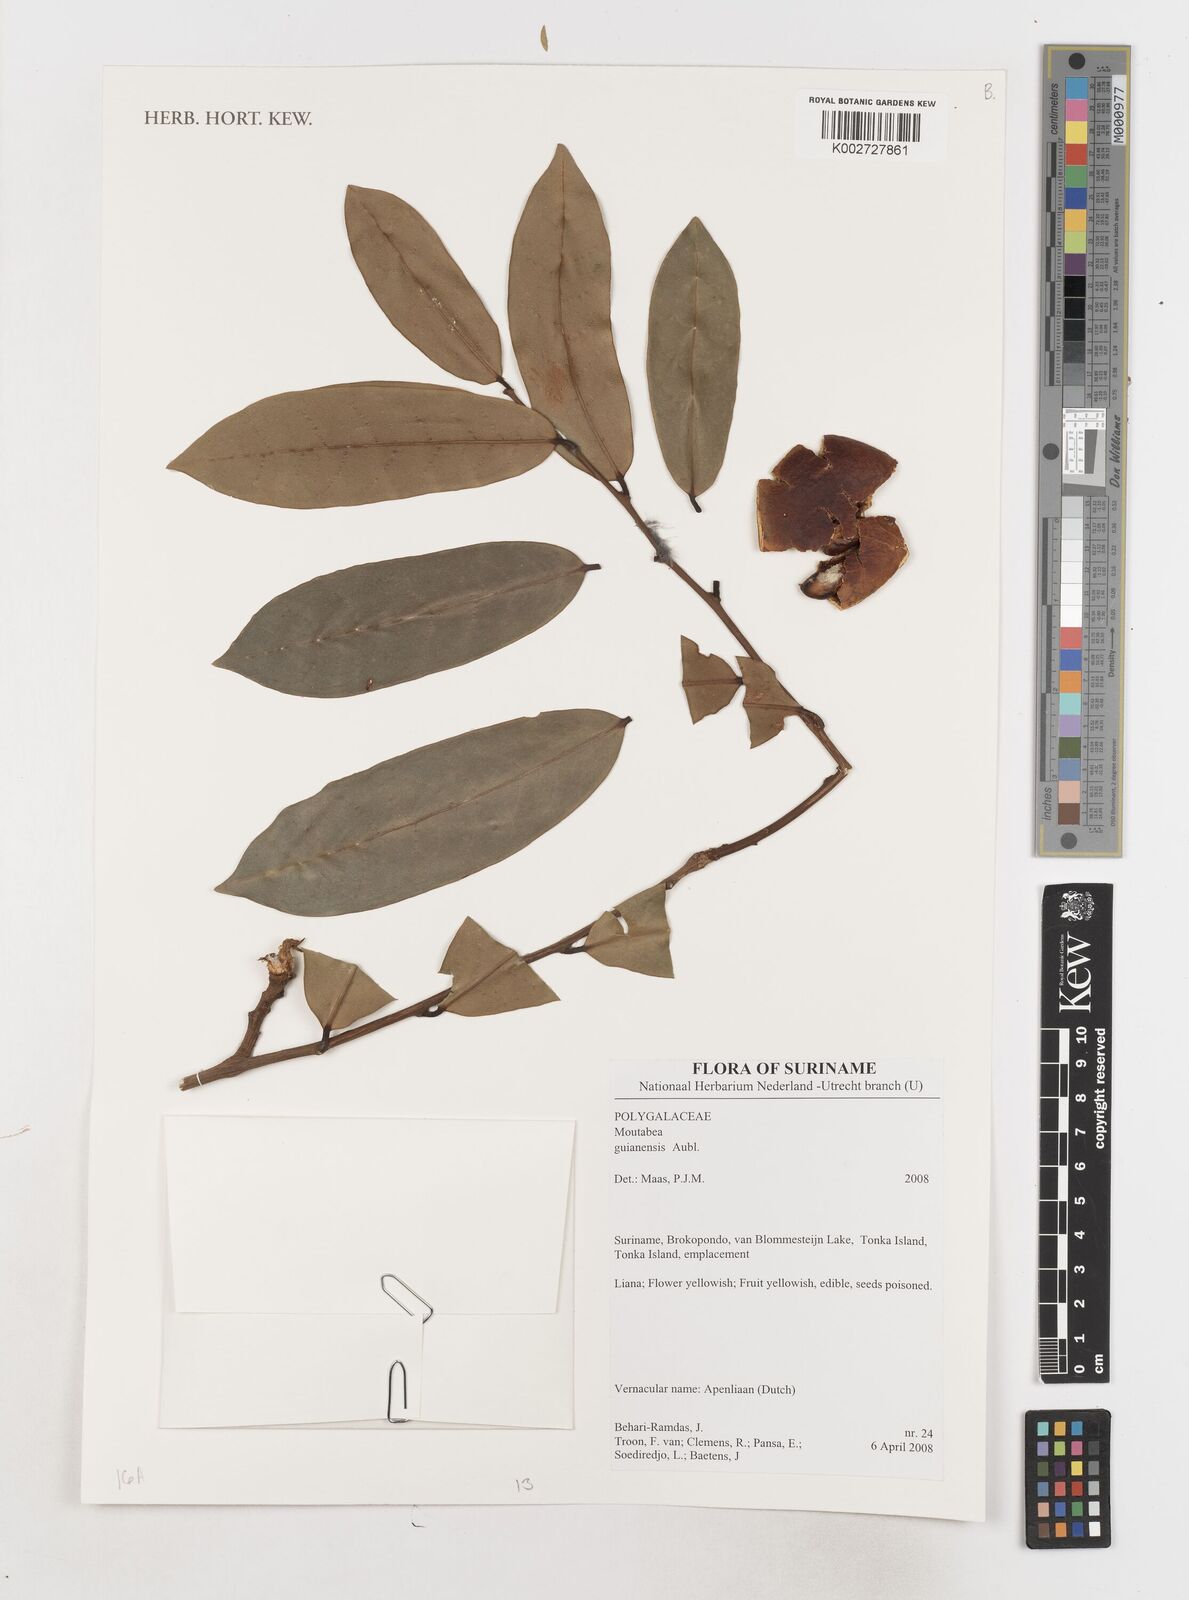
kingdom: Plantae
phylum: Tracheophyta
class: Magnoliopsida
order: Fabales
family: Polygalaceae
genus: Moutabea
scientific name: Moutabea guianensis
